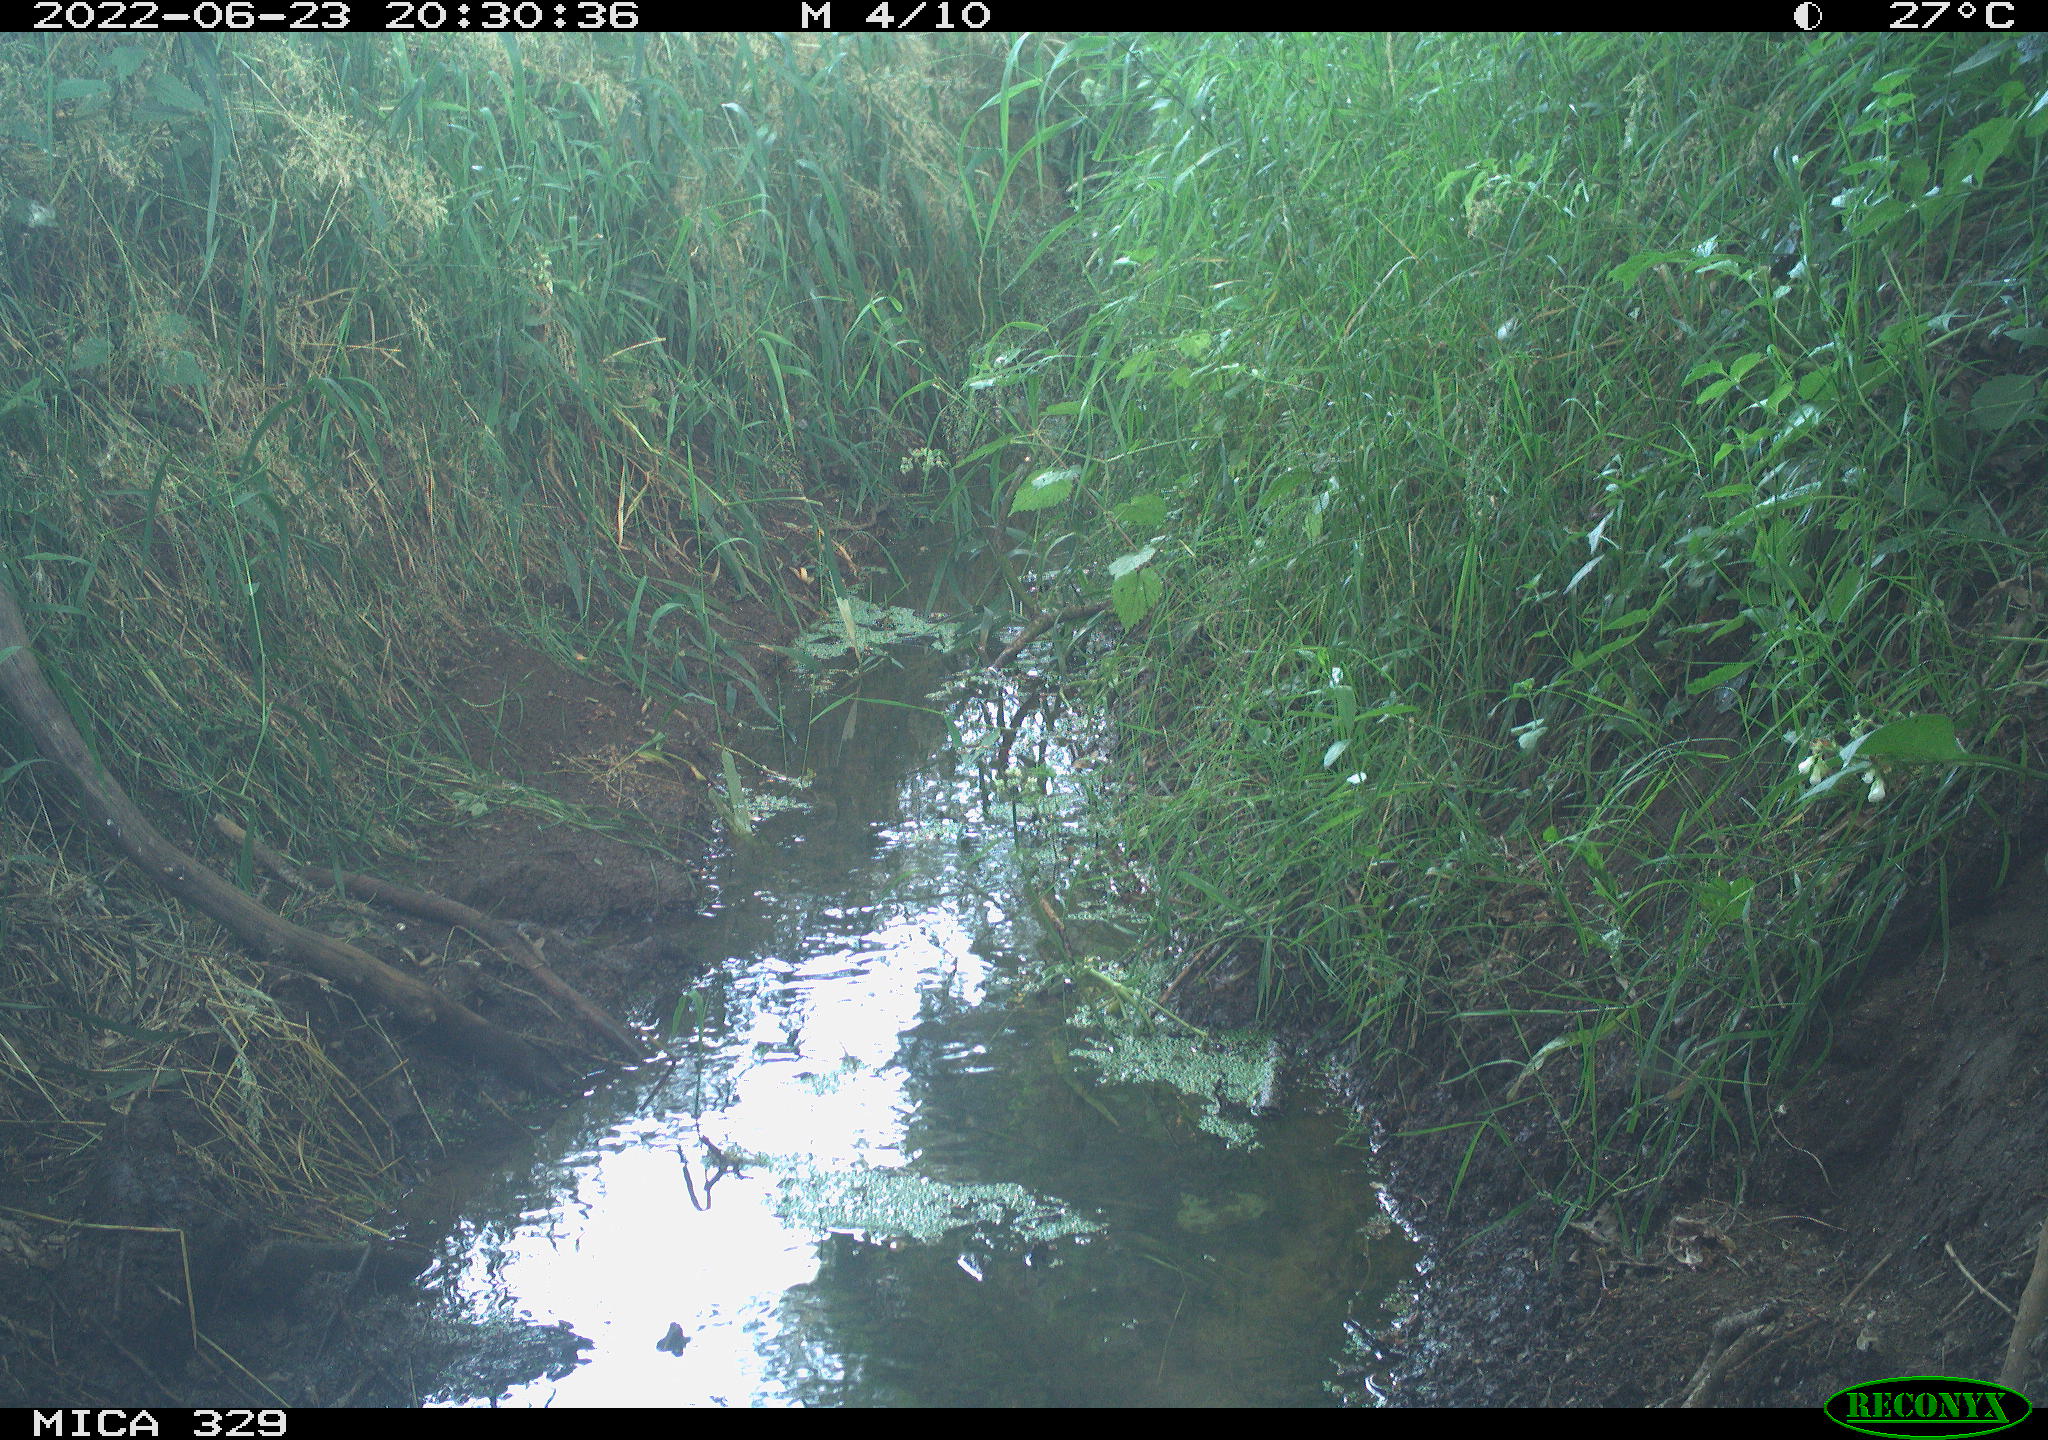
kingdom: Animalia
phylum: Chordata
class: Aves
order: Piciformes
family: Picidae
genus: Dendrocopos
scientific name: Dendrocopos major
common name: Great spotted woodpecker
